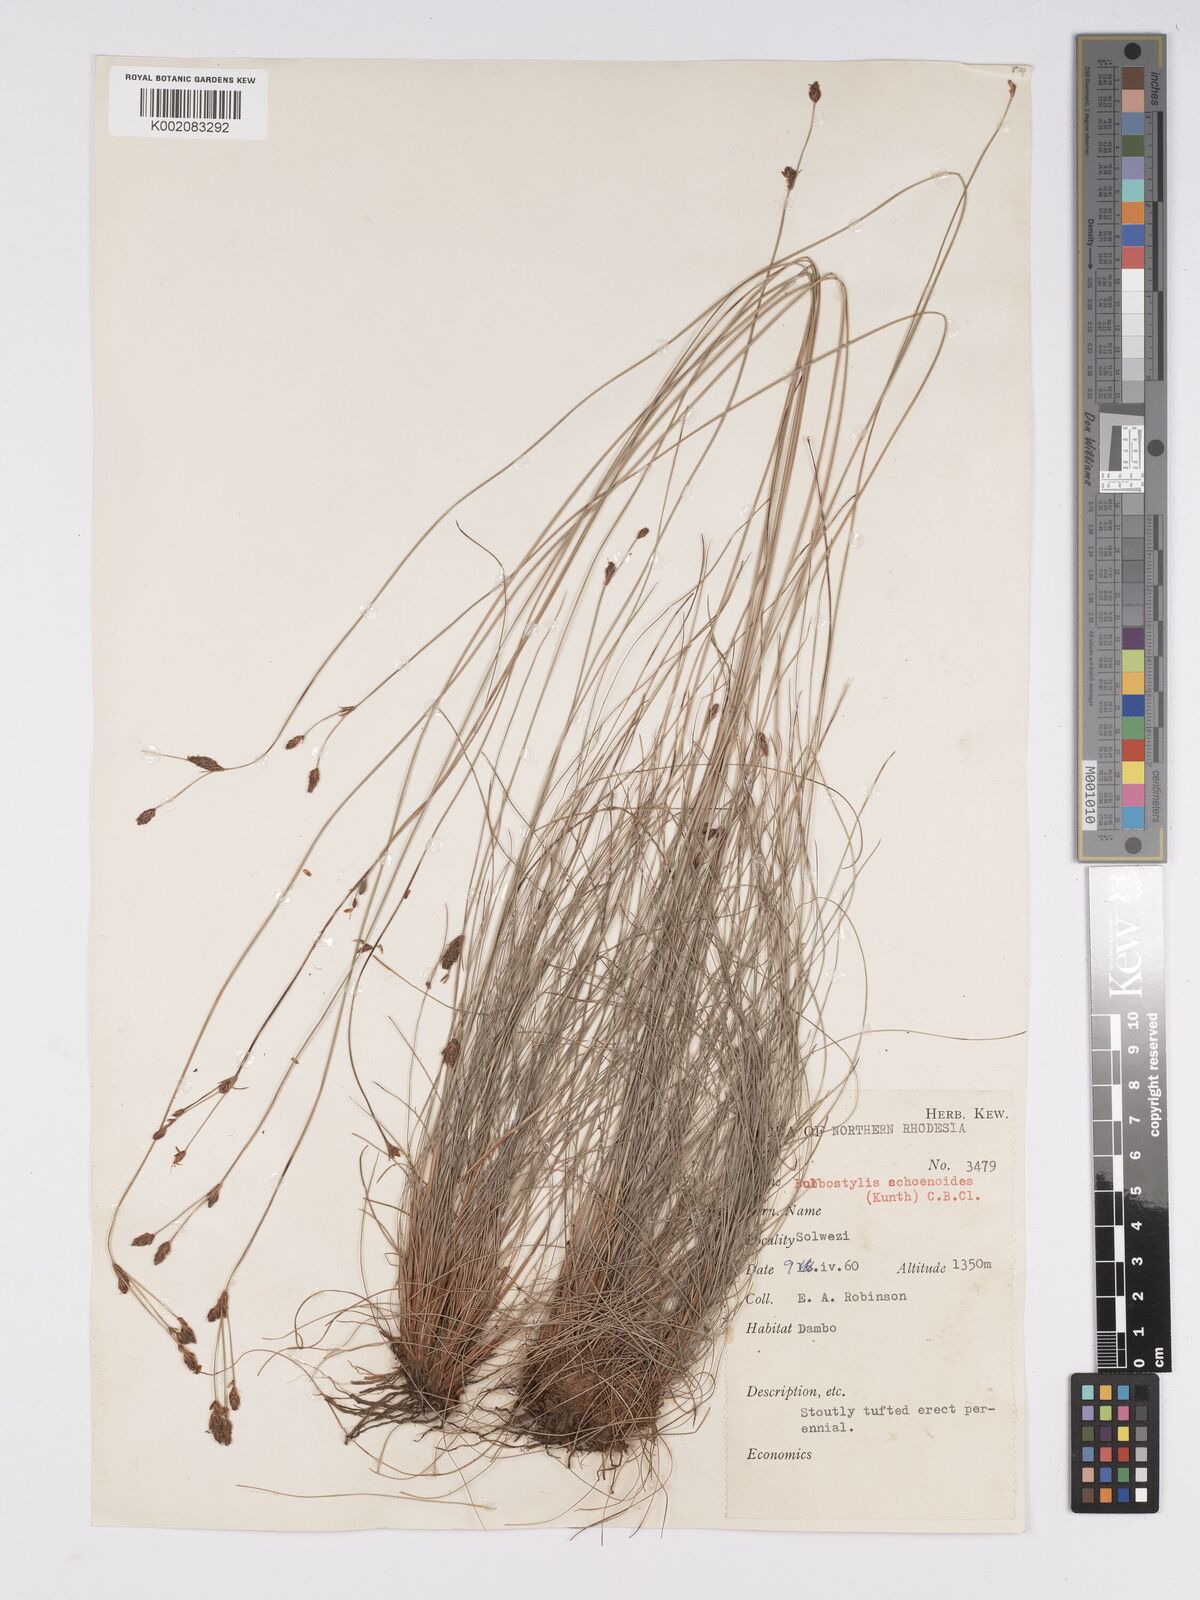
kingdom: Plantae
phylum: Tracheophyta
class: Liliopsida
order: Poales
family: Cyperaceae
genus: Bulbostylis
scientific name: Bulbostylis schoenoides
